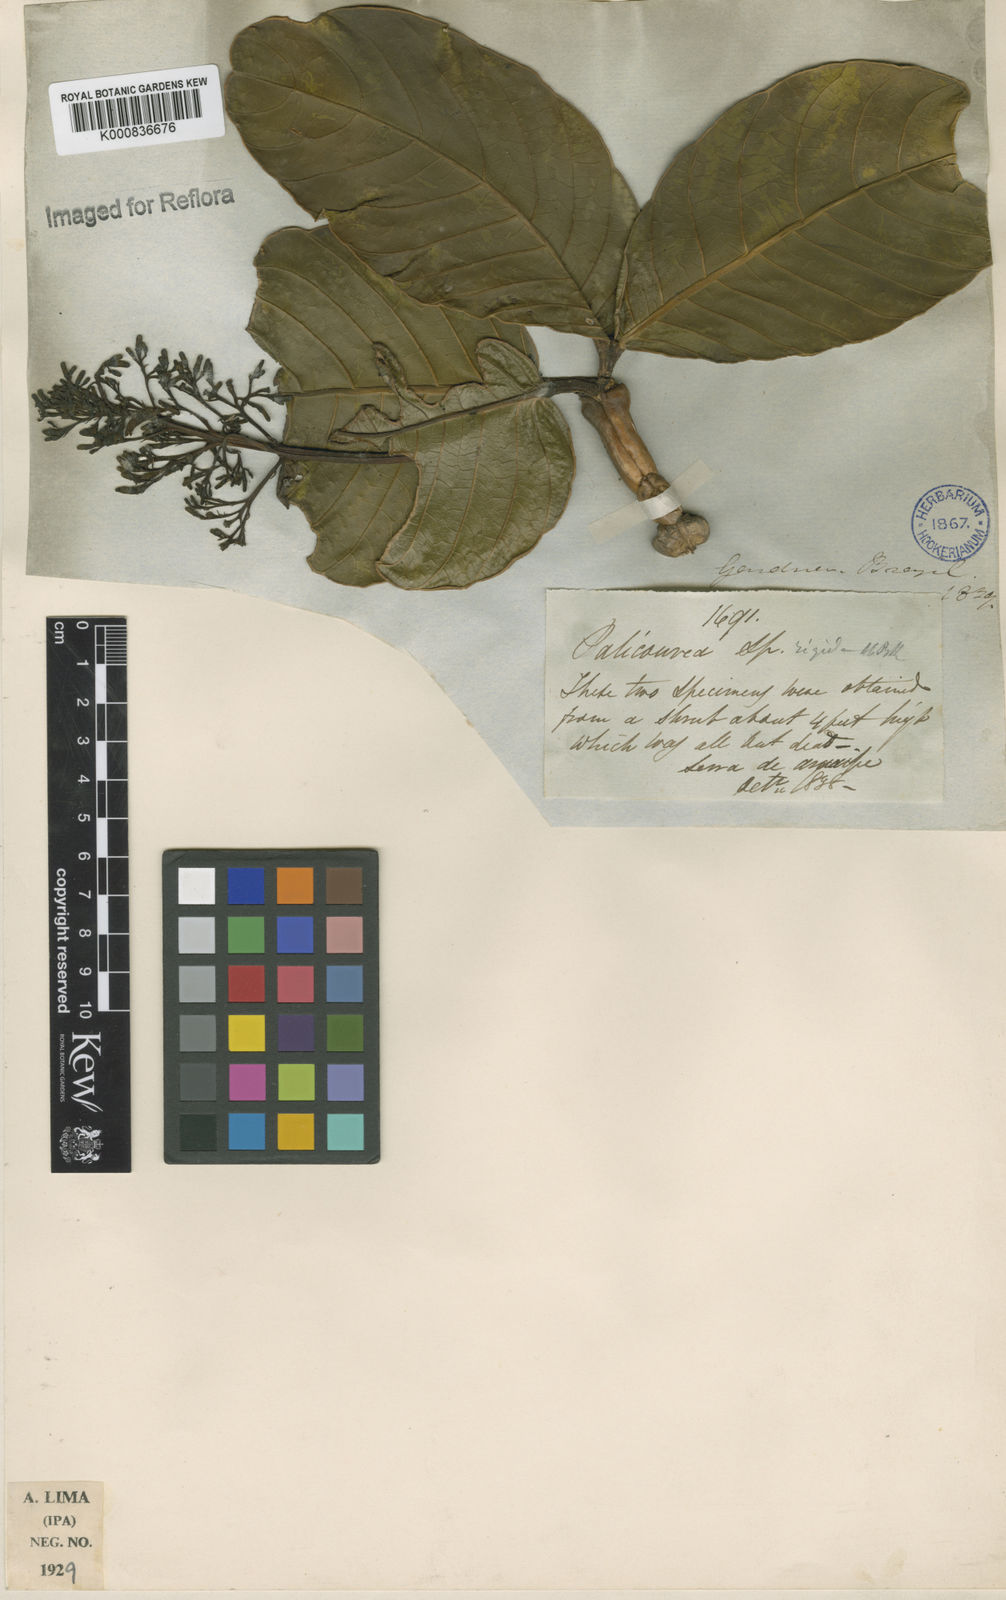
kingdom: Plantae
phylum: Tracheophyta
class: Magnoliopsida
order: Gentianales
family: Rubiaceae
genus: Palicourea
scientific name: Palicourea rigida
